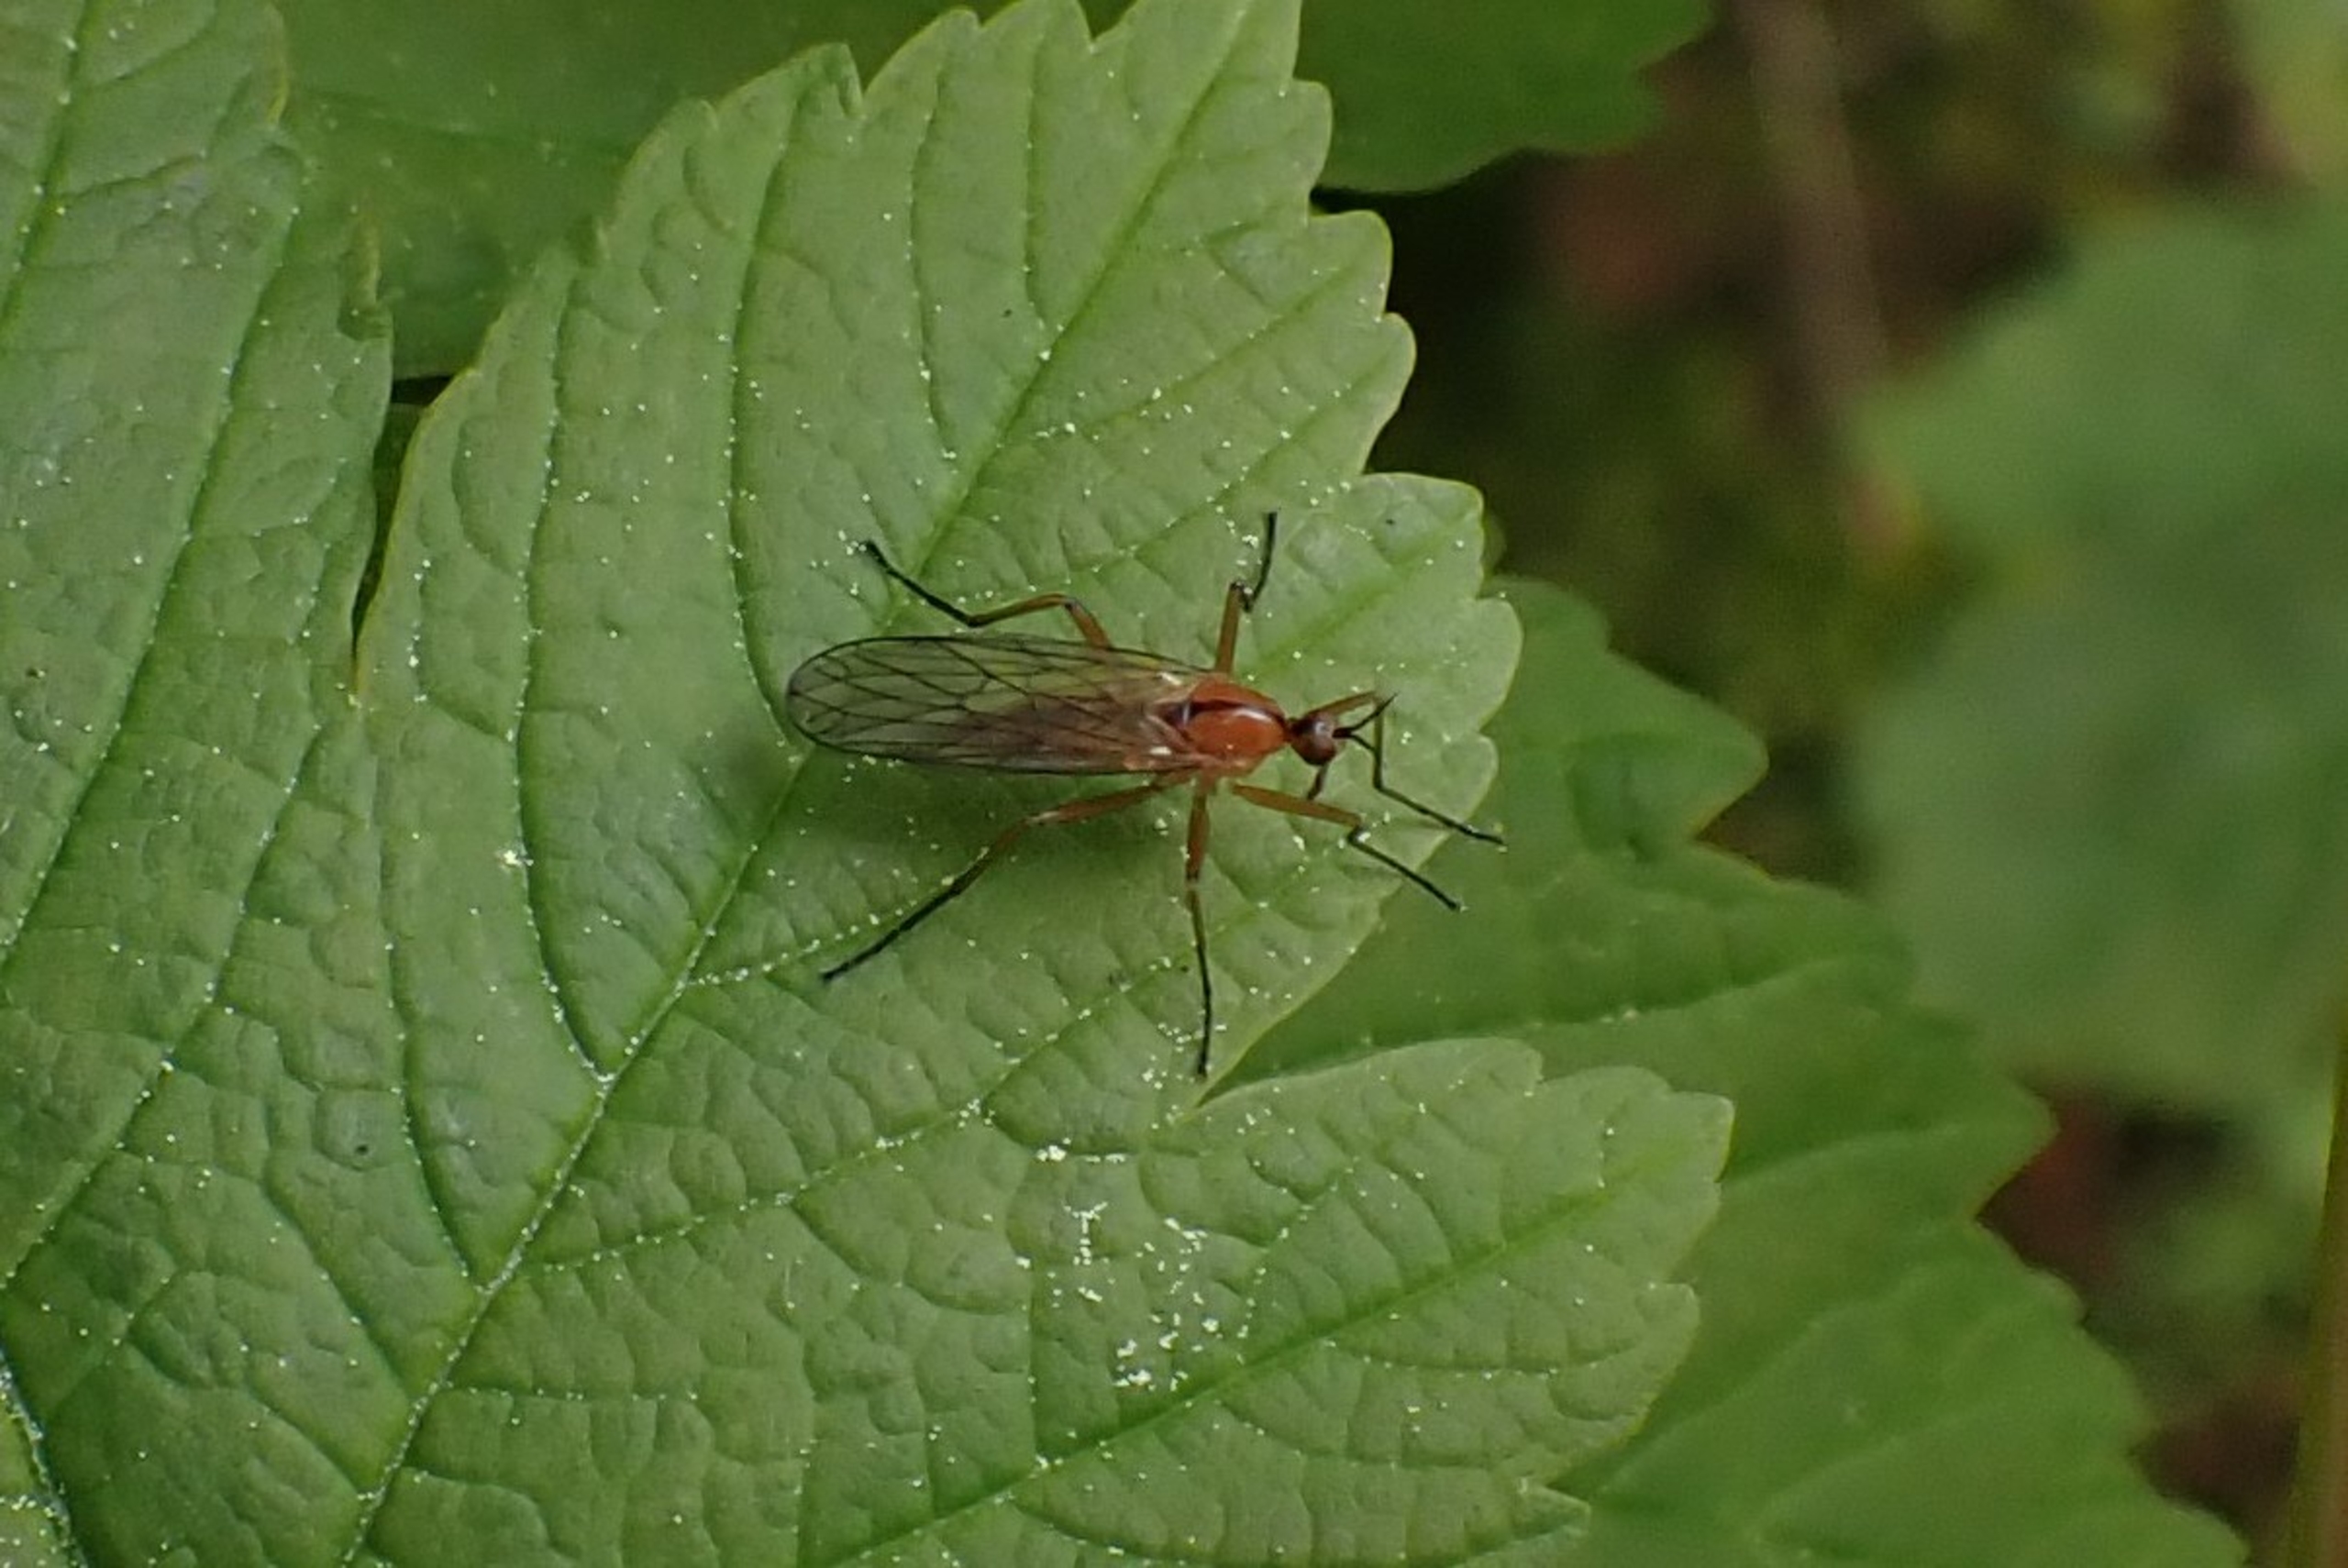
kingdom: Animalia
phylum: Arthropoda
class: Insecta
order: Diptera
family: Empididae
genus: Empis
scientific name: Empis stercorea
